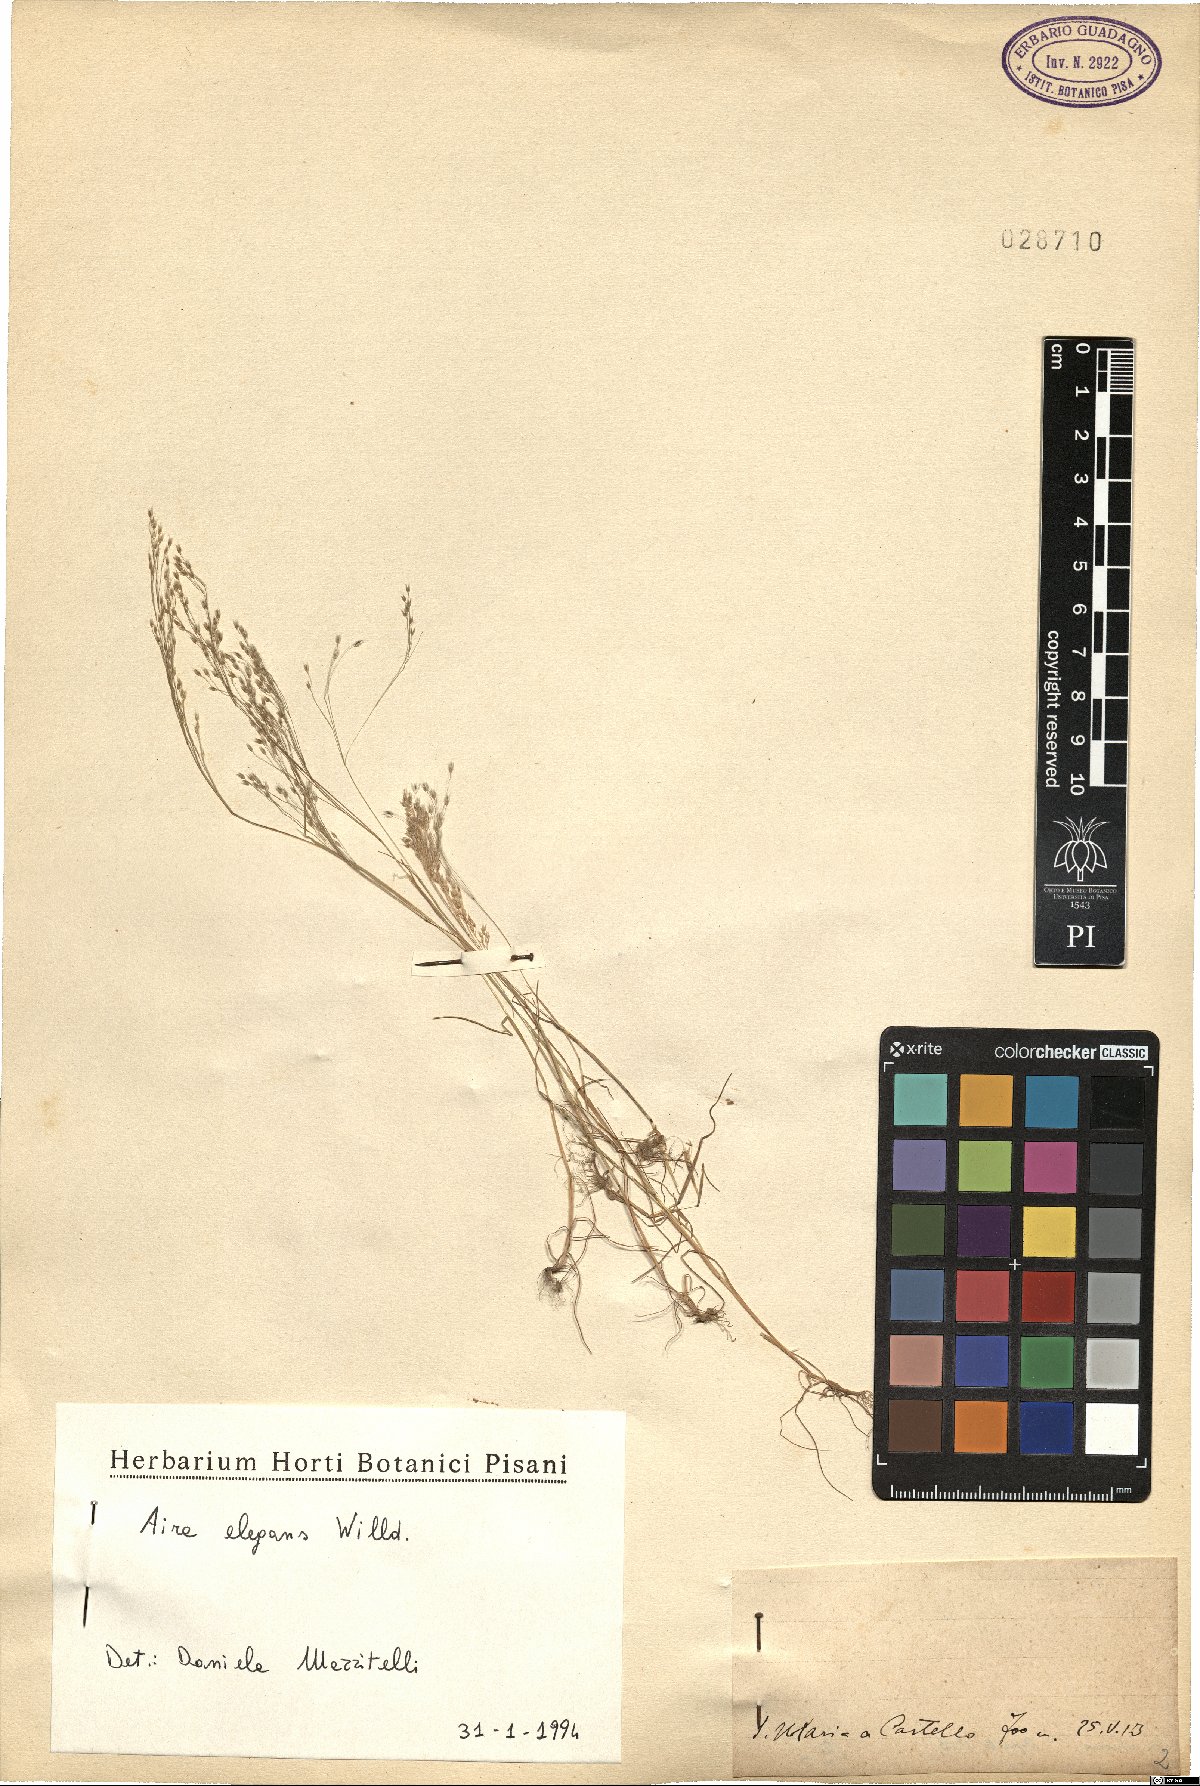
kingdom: Plantae
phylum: Tracheophyta
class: Liliopsida
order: Poales
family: Poaceae
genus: Aira
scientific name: Aira elegans
